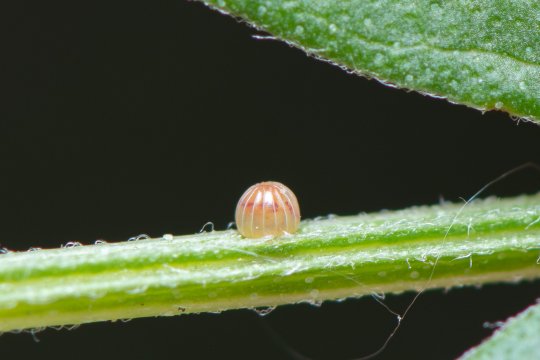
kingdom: Animalia
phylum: Arthropoda
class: Insecta
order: Lepidoptera
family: Hesperiidae
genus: Epargyreus
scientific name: Epargyreus clarus
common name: Silver-spotted Skipper
